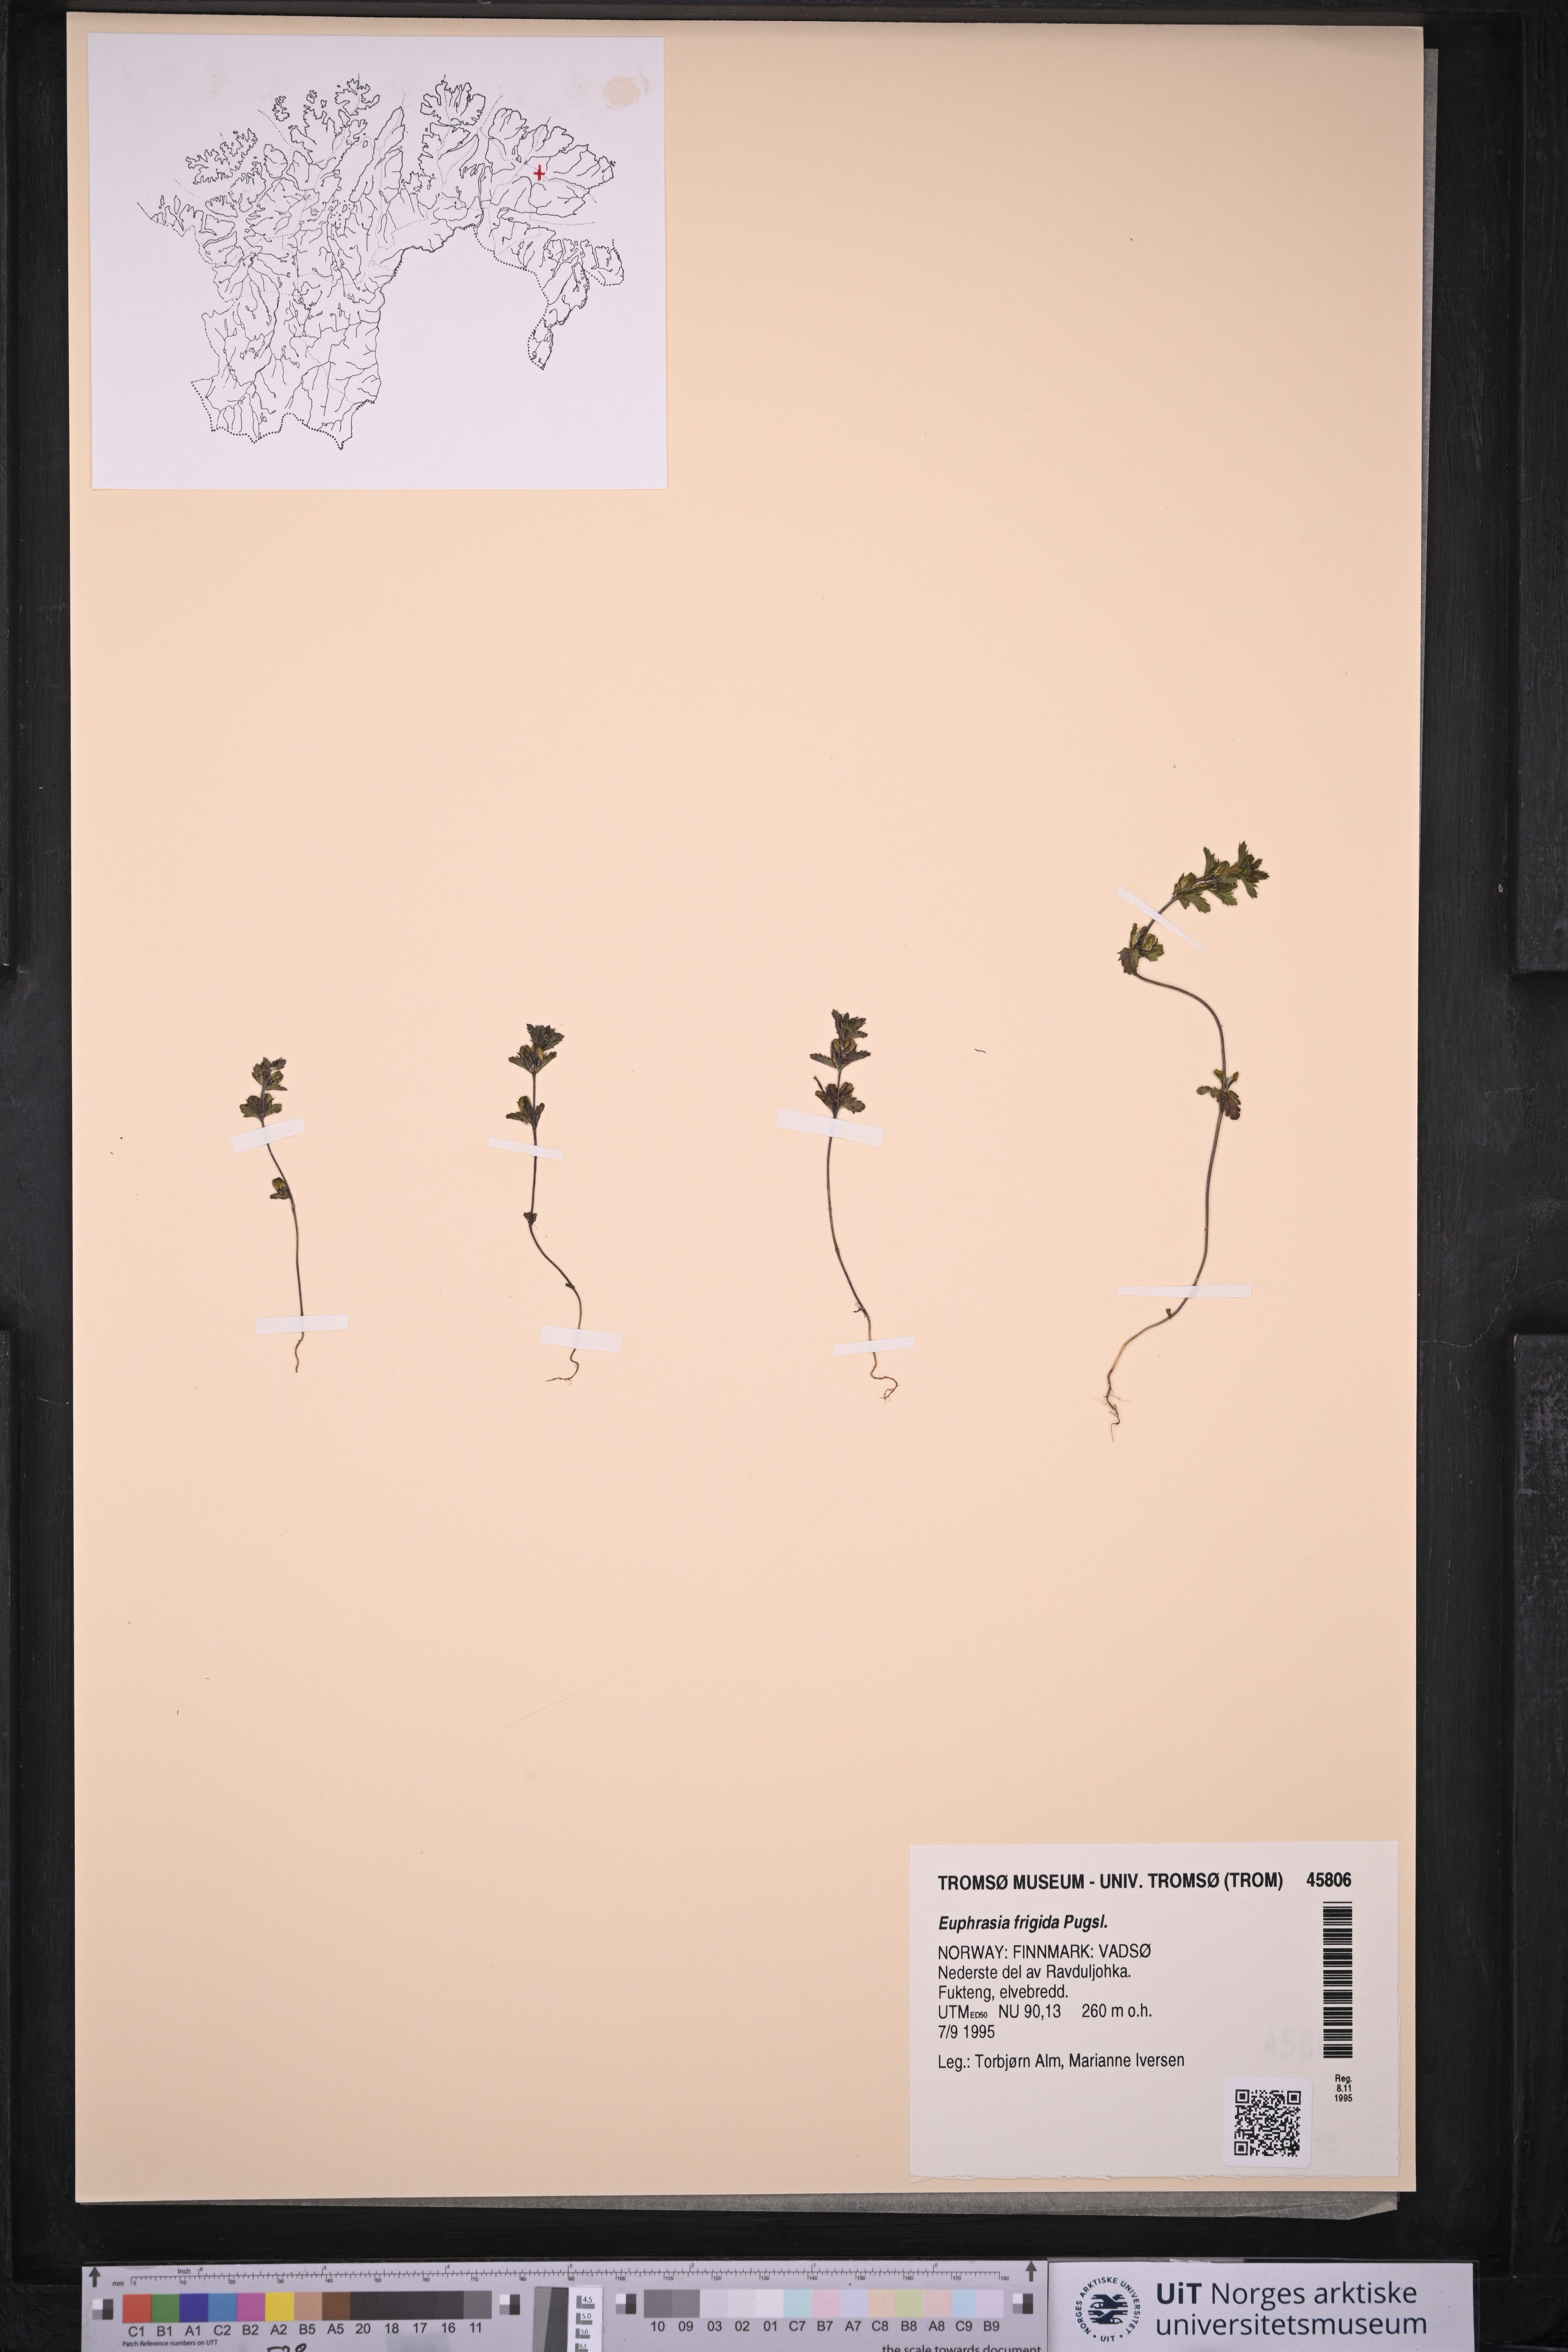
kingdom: Plantae
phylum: Tracheophyta
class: Magnoliopsida
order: Lamiales
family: Orobanchaceae
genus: Euphrasia
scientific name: Euphrasia frigida
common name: An eyebright
